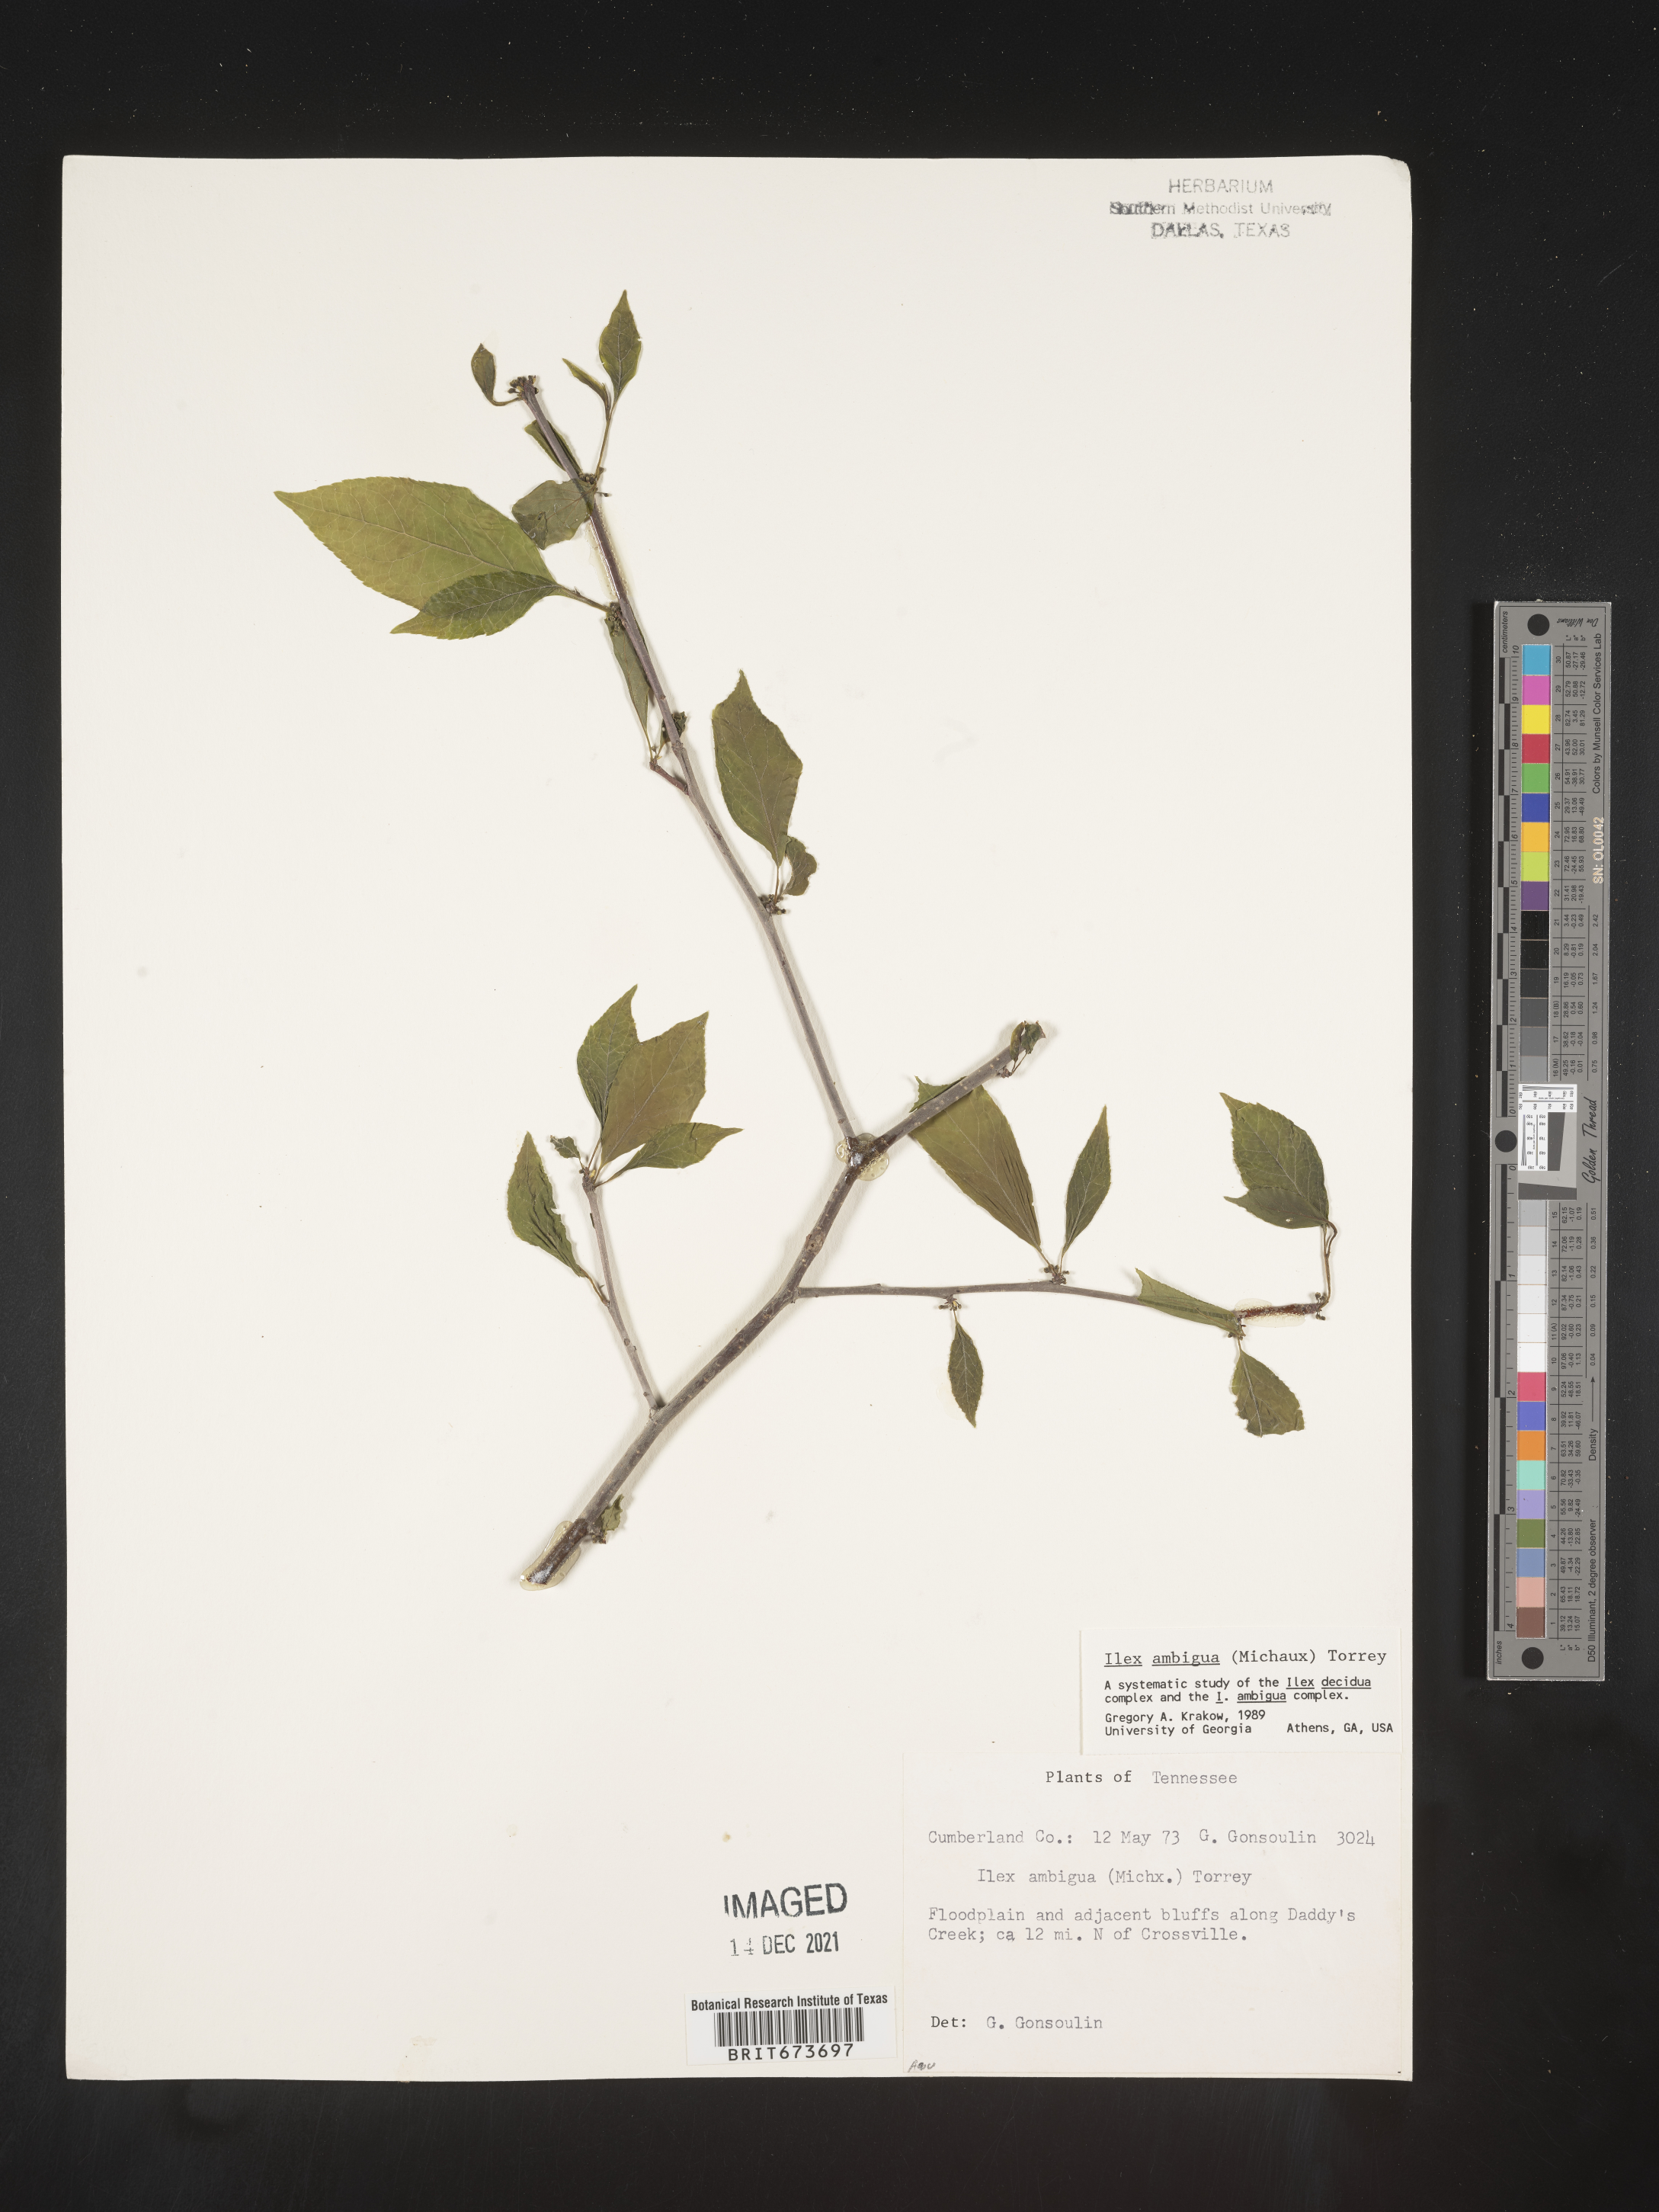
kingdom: Plantae
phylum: Tracheophyta
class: Magnoliopsida
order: Aquifoliales
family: Aquifoliaceae
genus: Ilex
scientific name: Ilex ambigua
